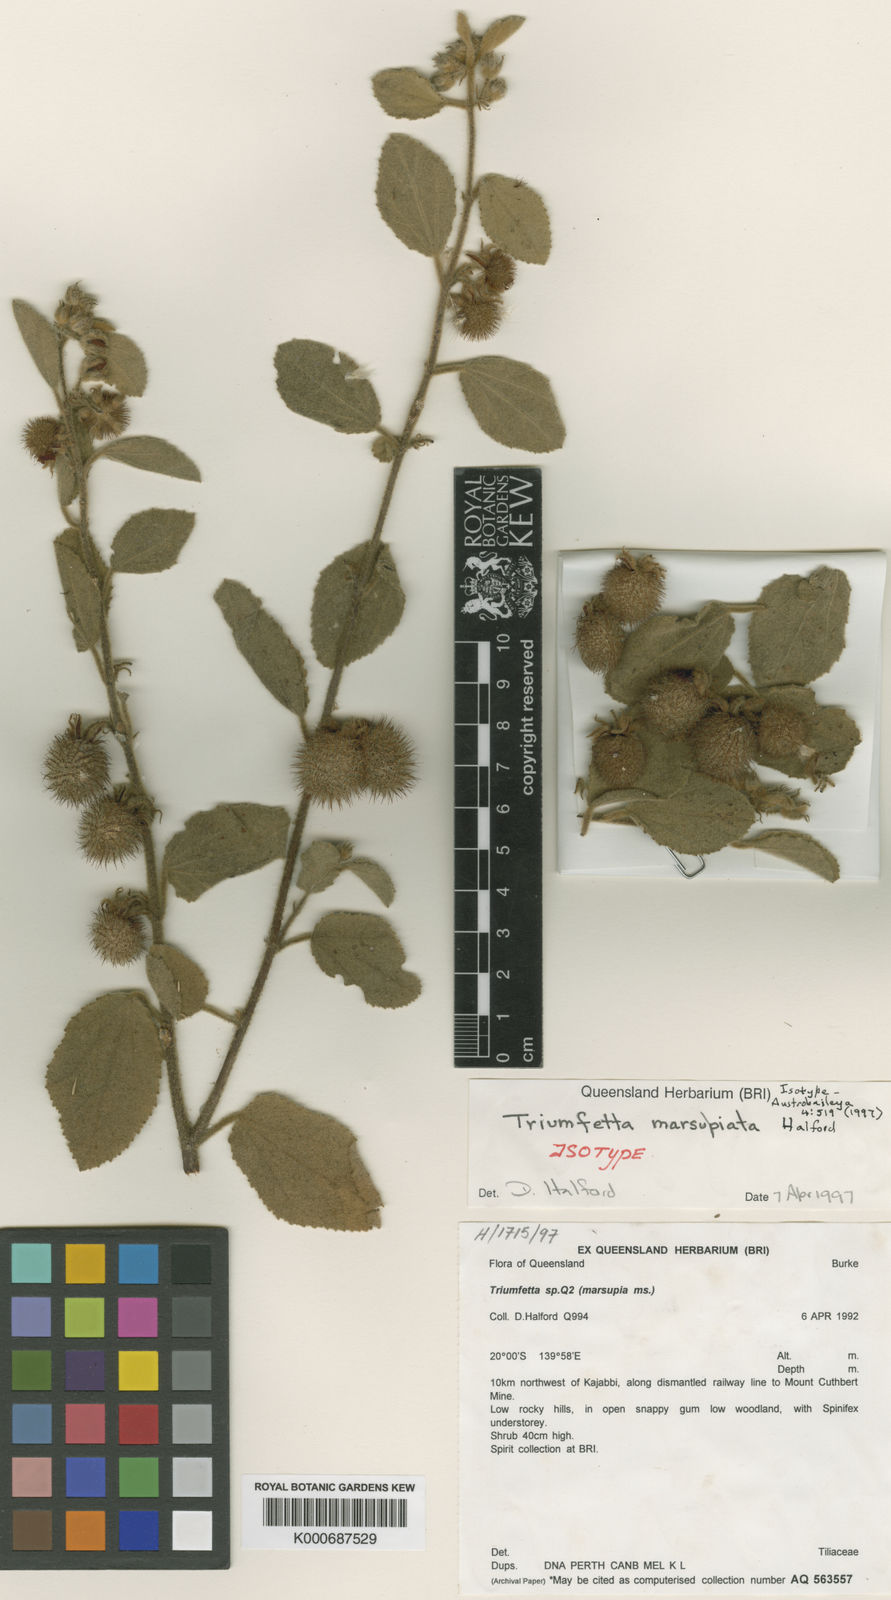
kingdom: Plantae
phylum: Tracheophyta
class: Magnoliopsida
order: Malvales
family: Malvaceae
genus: Triumfetta
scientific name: Triumfetta marsupiata
